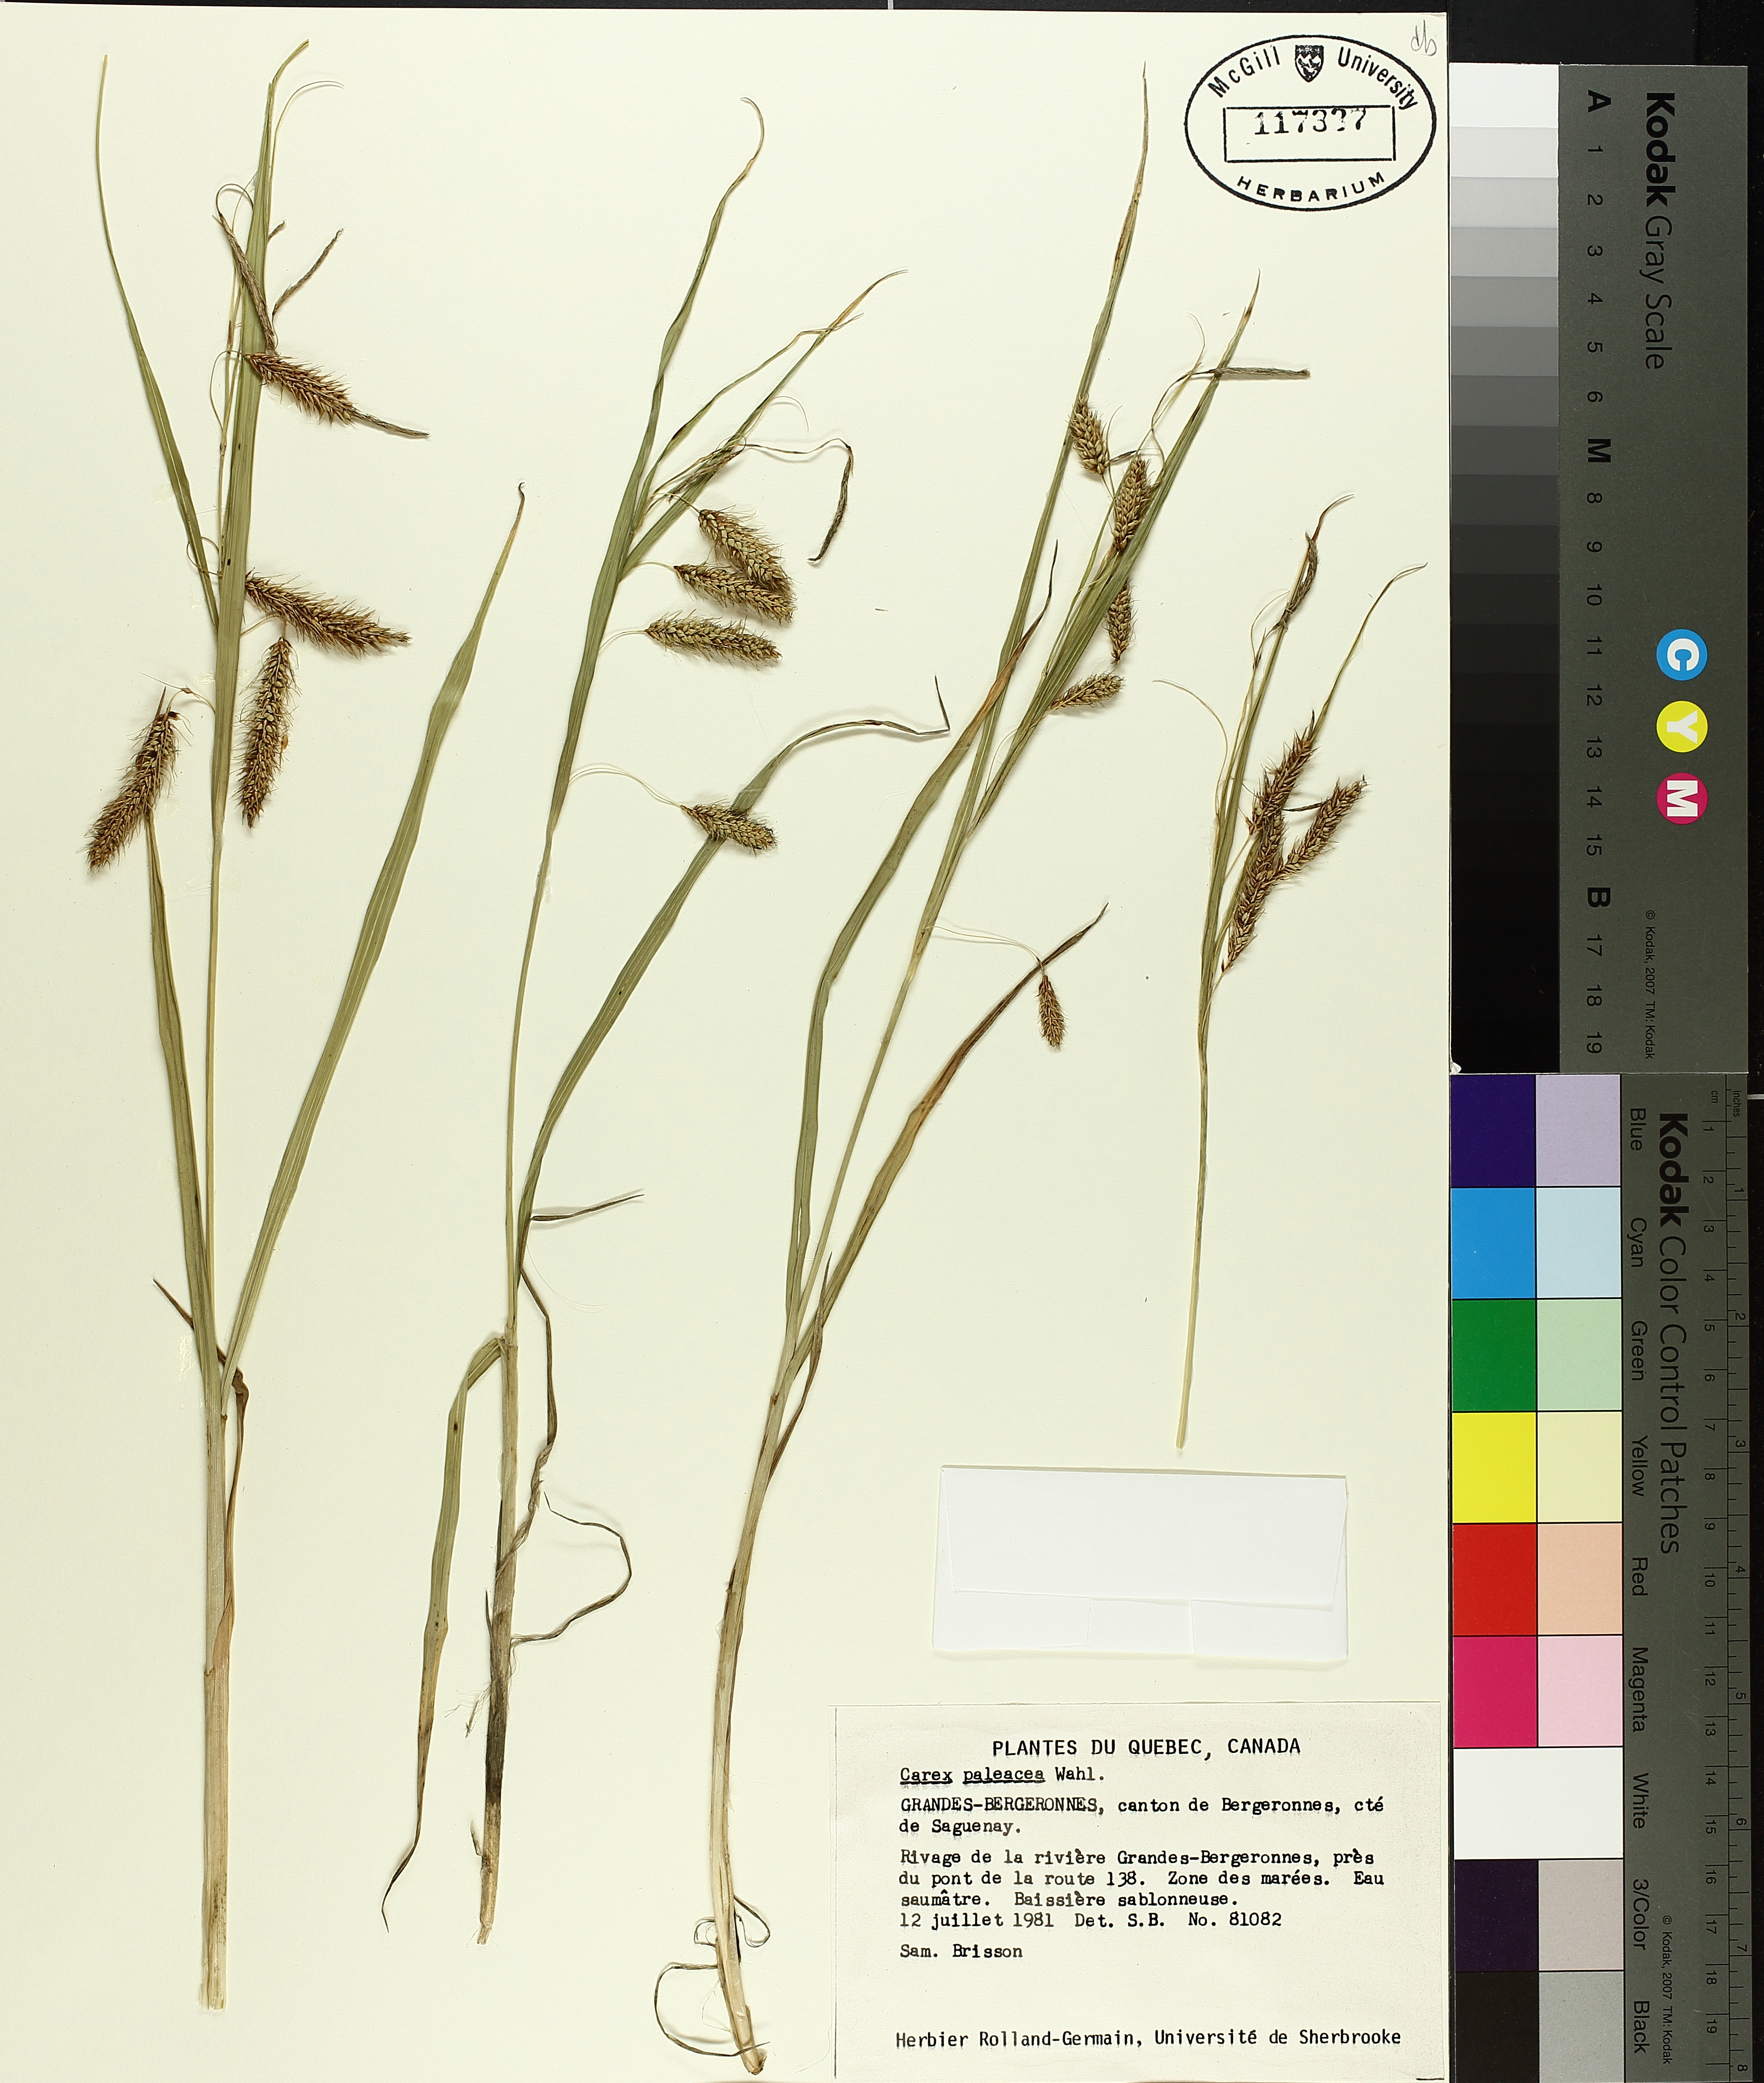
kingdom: Plantae
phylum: Tracheophyta
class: Liliopsida
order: Poales
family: Cyperaceae
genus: Carex
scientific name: Carex paleacea
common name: Chaffy sedge
